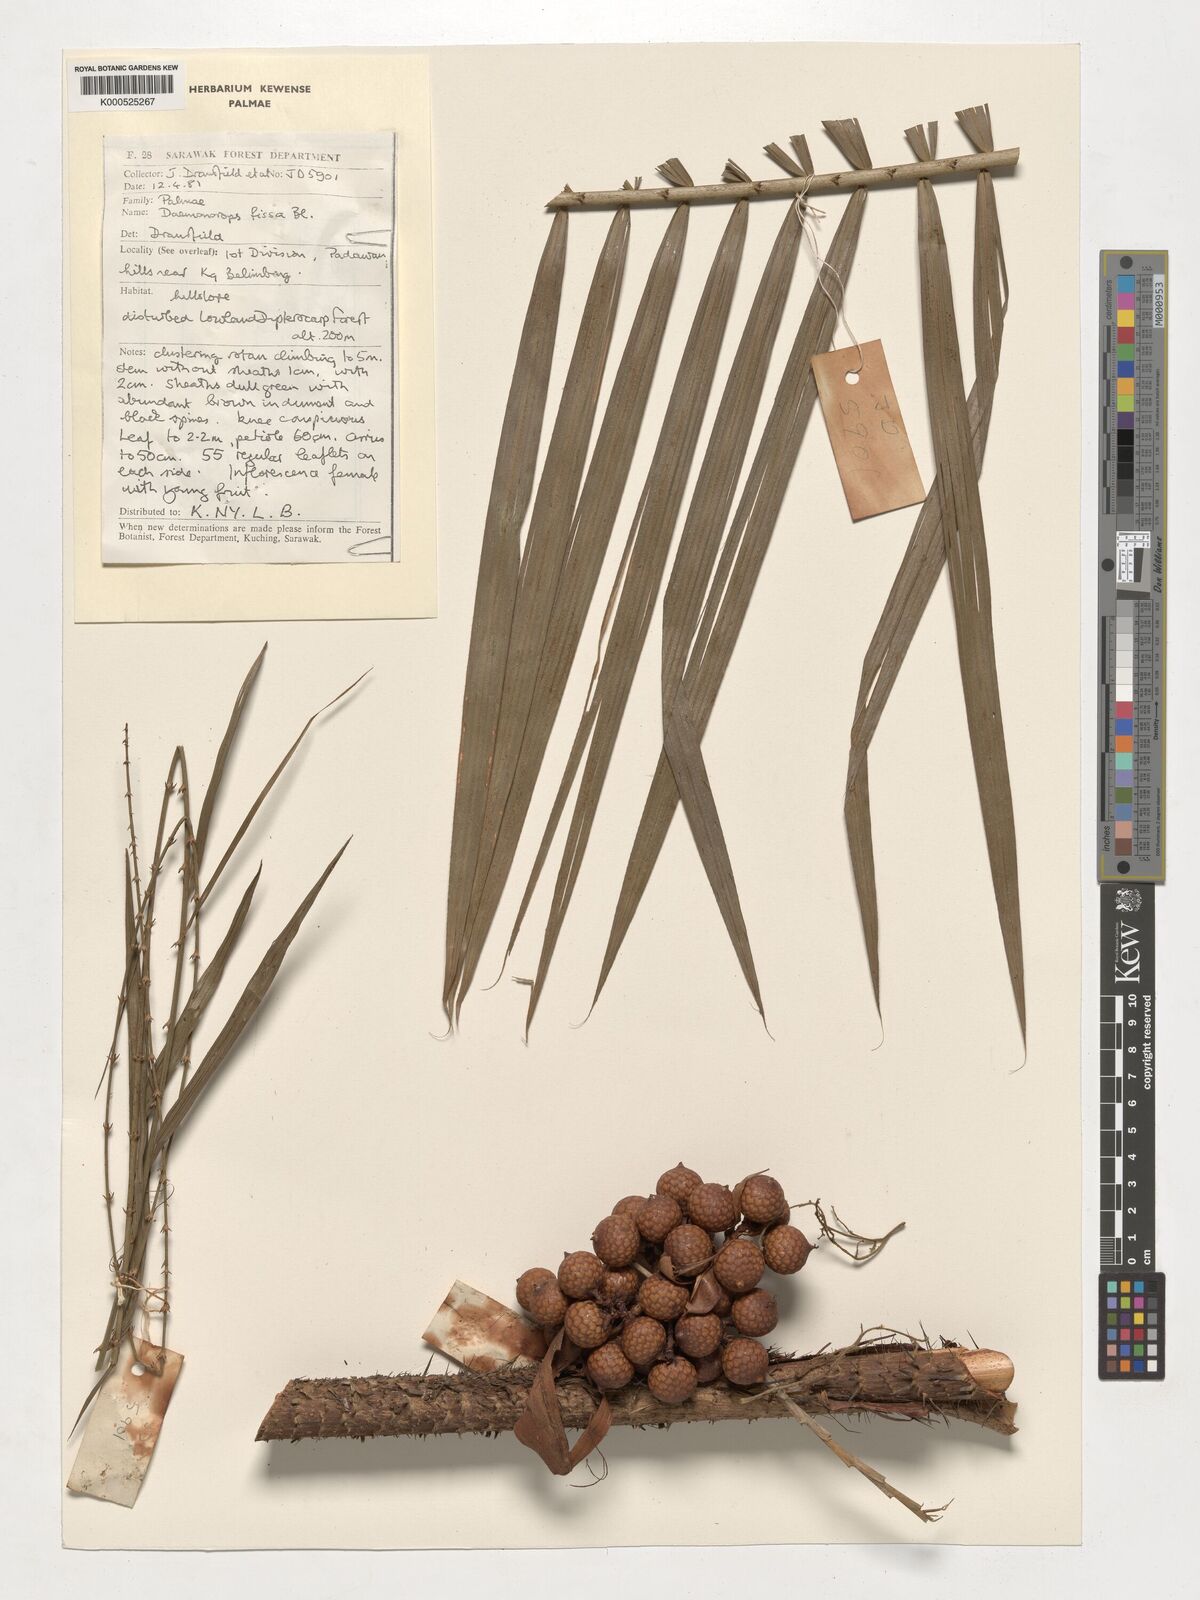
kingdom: Plantae
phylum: Tracheophyta
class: Liliopsida
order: Arecales
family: Arecaceae
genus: Calamus
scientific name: Calamus melanochaetes
